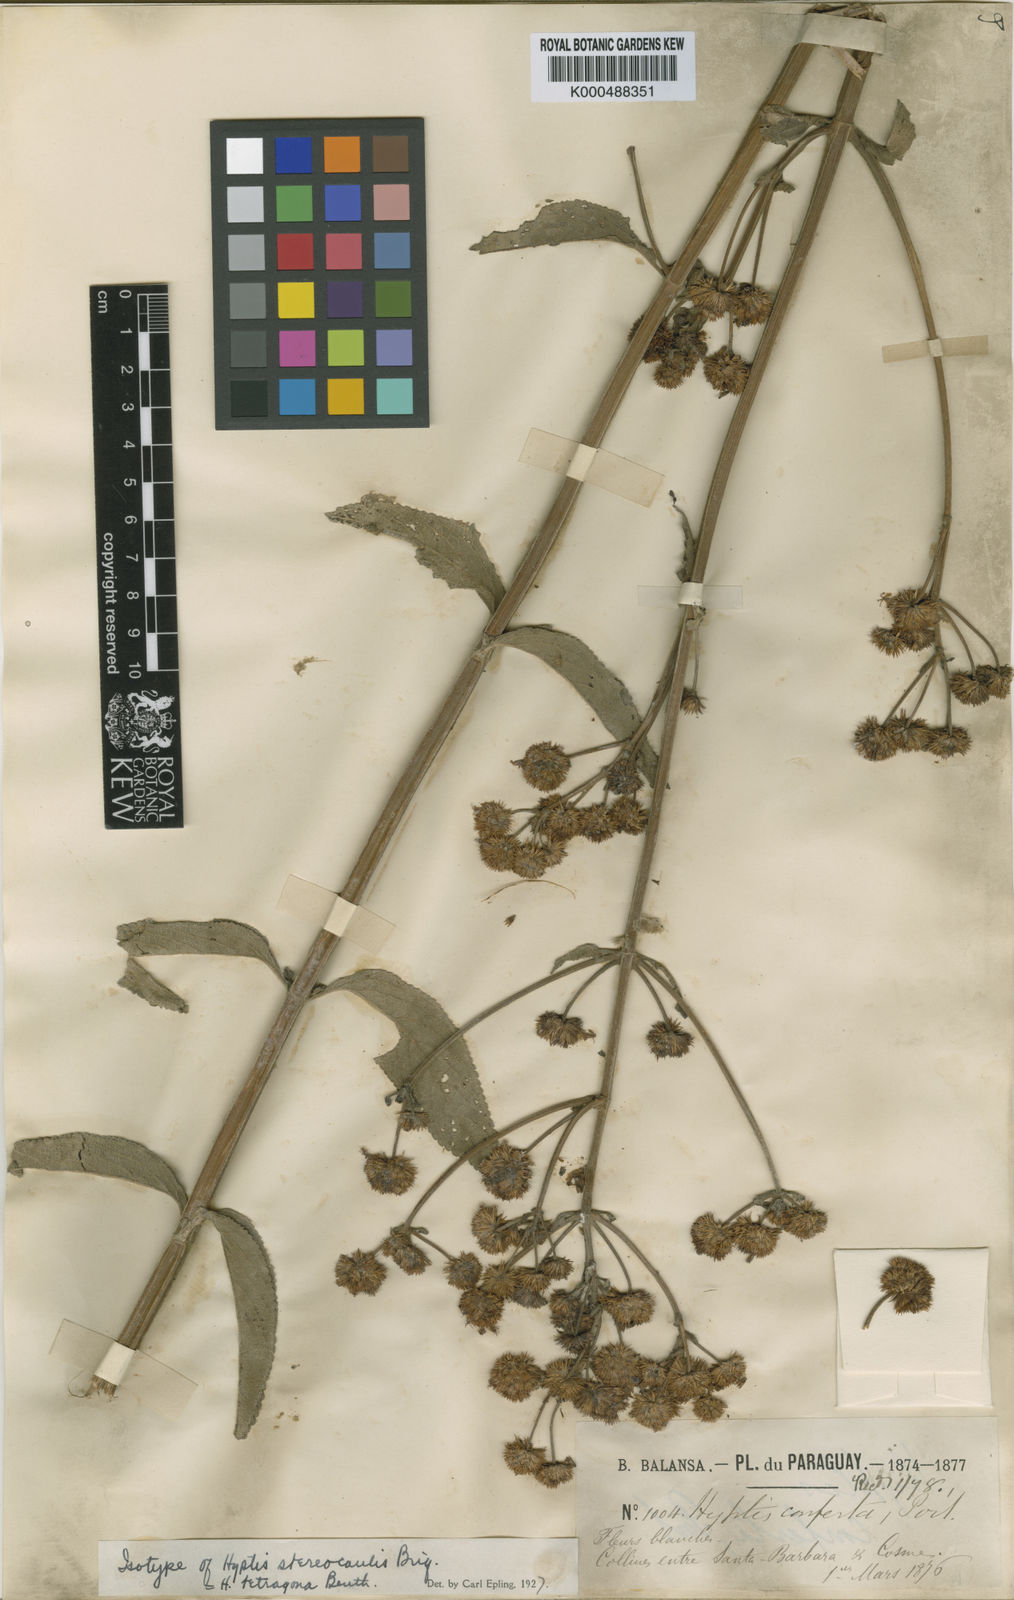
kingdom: Plantae
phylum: Tracheophyta
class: Magnoliopsida
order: Lamiales
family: Lamiaceae
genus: Hyptis
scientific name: Hyptis tetragona
